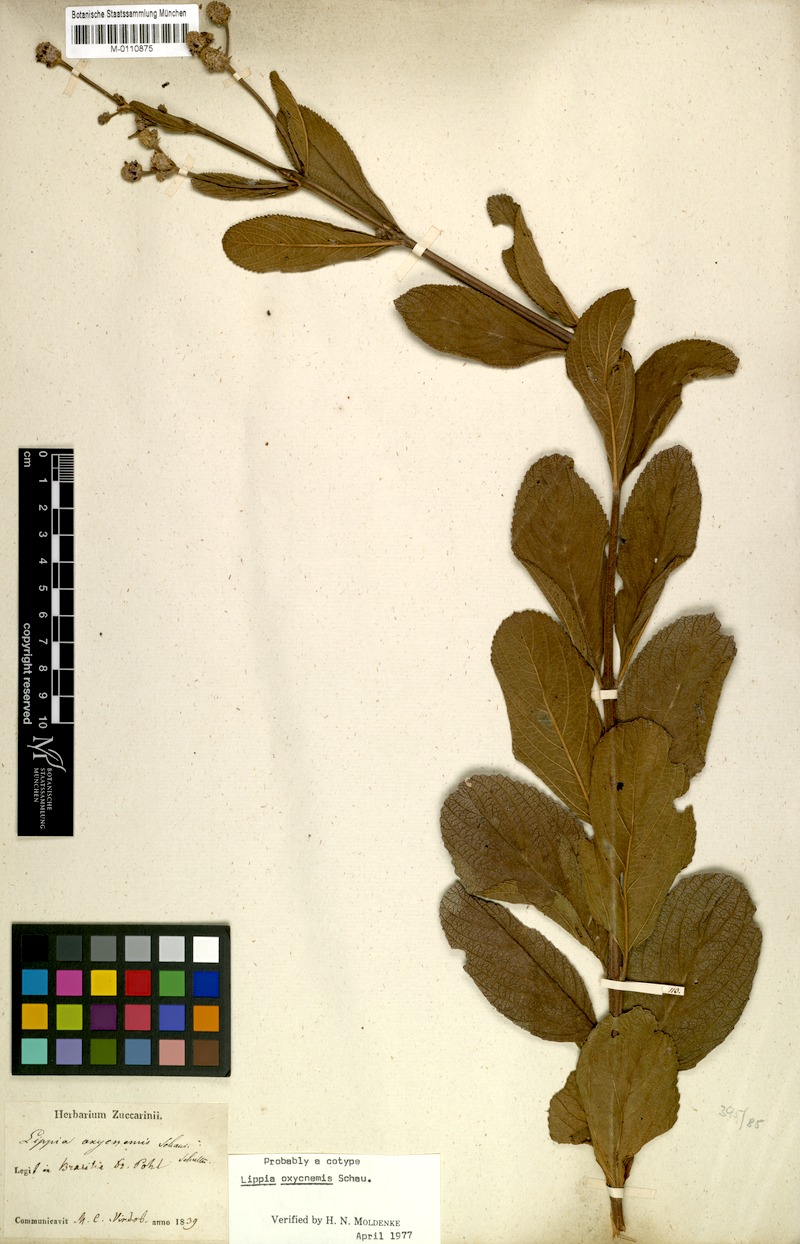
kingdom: Plantae
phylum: Tracheophyta
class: Magnoliopsida
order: Lamiales
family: Verbenaceae
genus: Lippia
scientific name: Lippia oxycnemis
